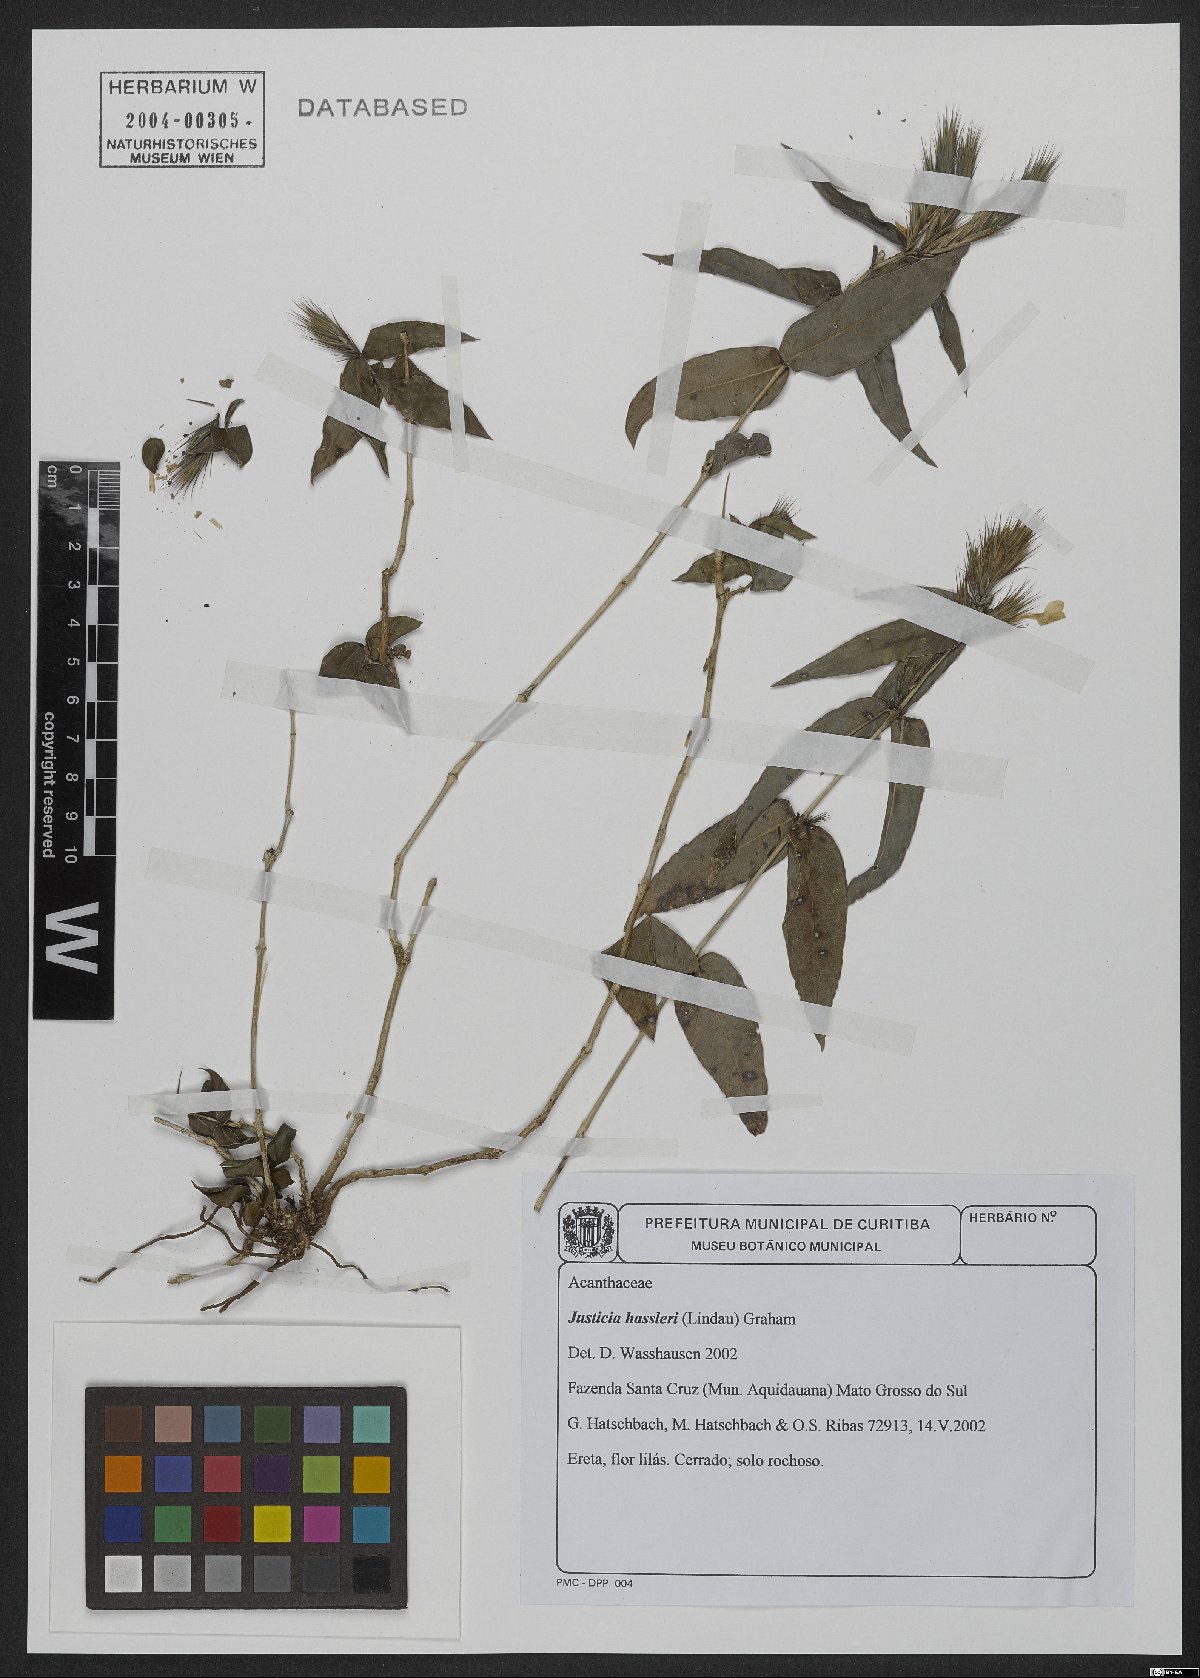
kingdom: Plantae
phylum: Tracheophyta
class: Magnoliopsida
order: Lamiales
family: Acanthaceae
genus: Justicia
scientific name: Justicia hassleri
